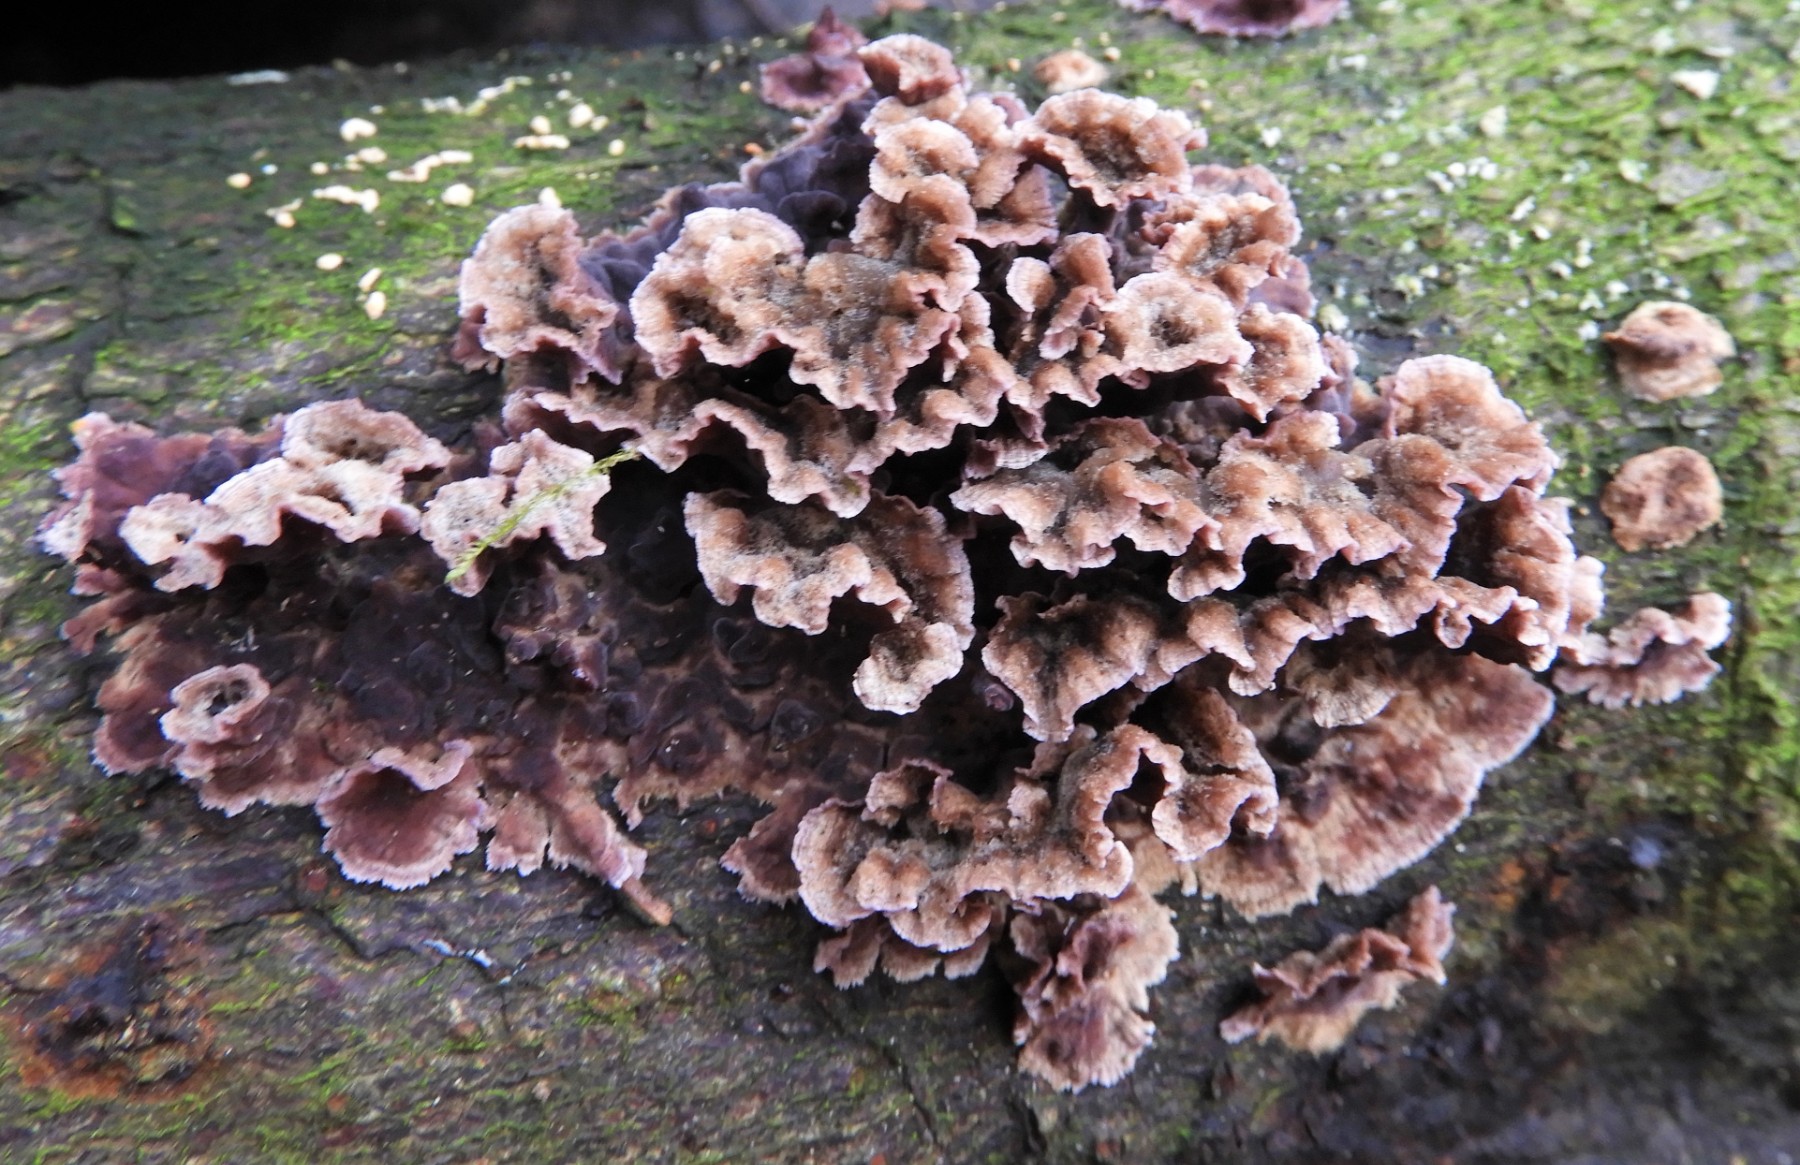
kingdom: Fungi
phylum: Basidiomycota
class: Agaricomycetes
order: Agaricales
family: Cyphellaceae
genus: Chondrostereum
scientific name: Chondrostereum purpureum
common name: purpurlædersvamp
